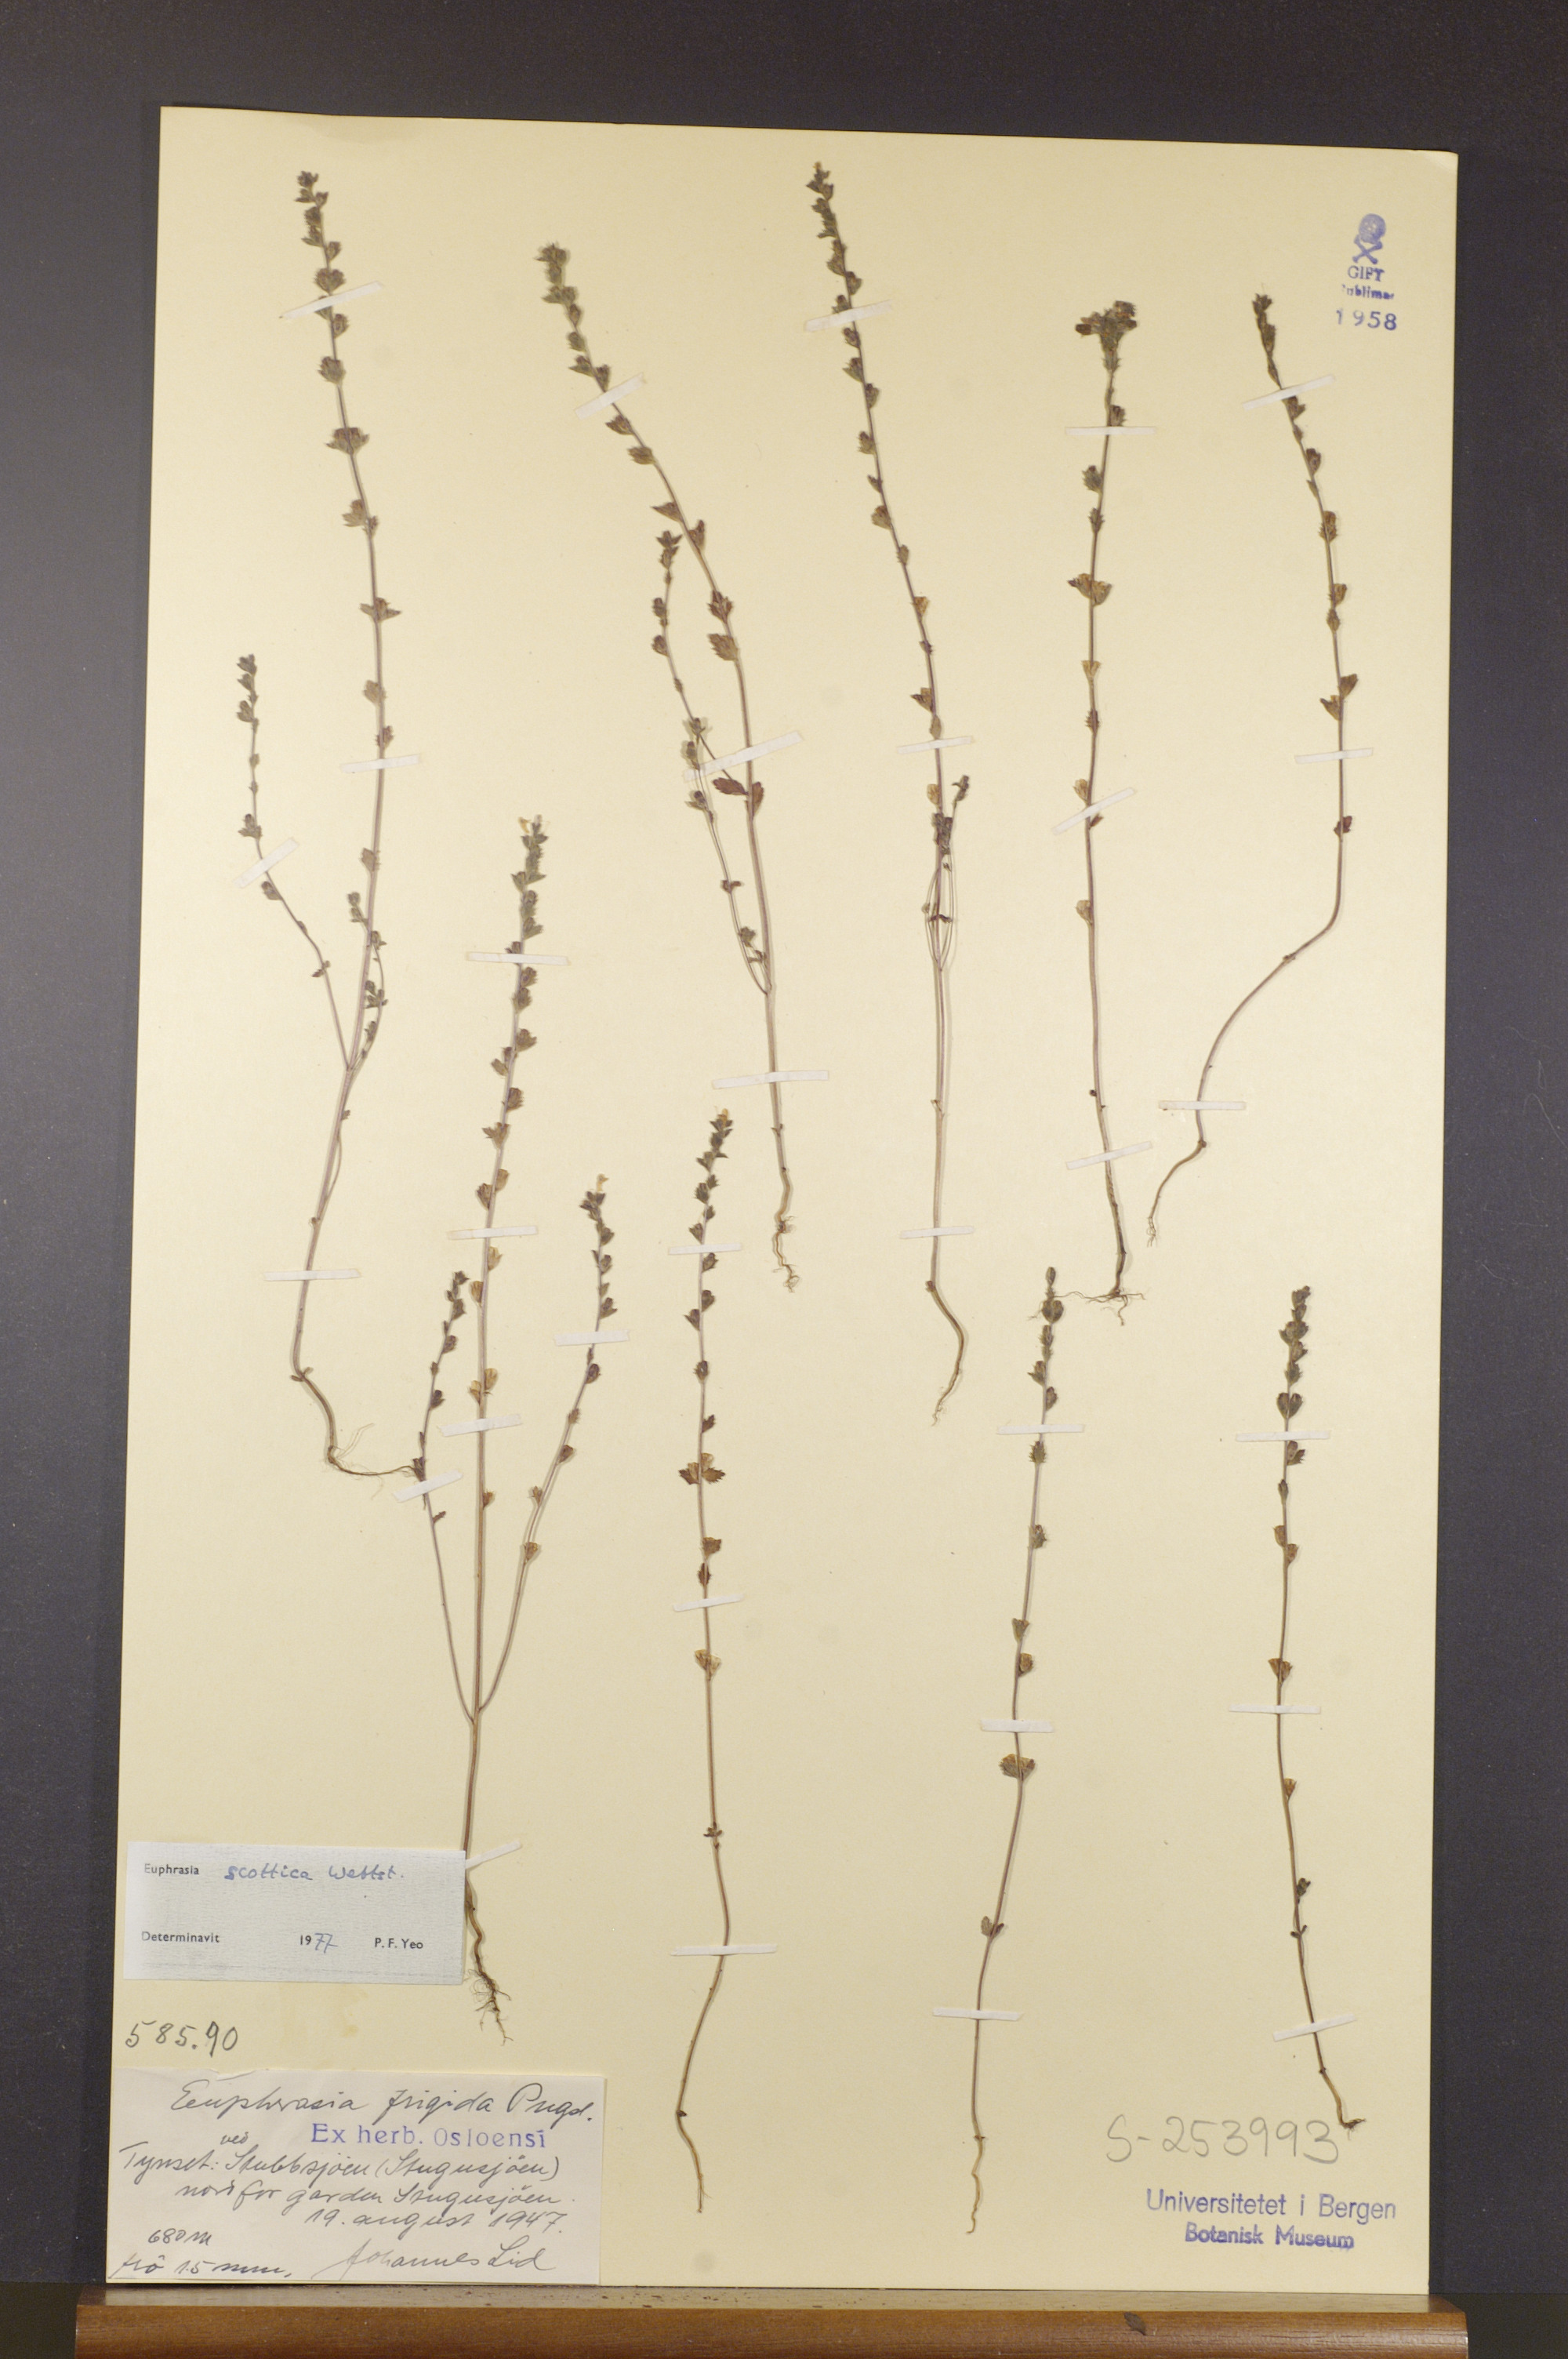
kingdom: Plantae
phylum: Tracheophyta
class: Magnoliopsida
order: Lamiales
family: Orobanchaceae
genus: Euphrasia
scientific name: Euphrasia scottica
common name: Slender scottish eyebright
